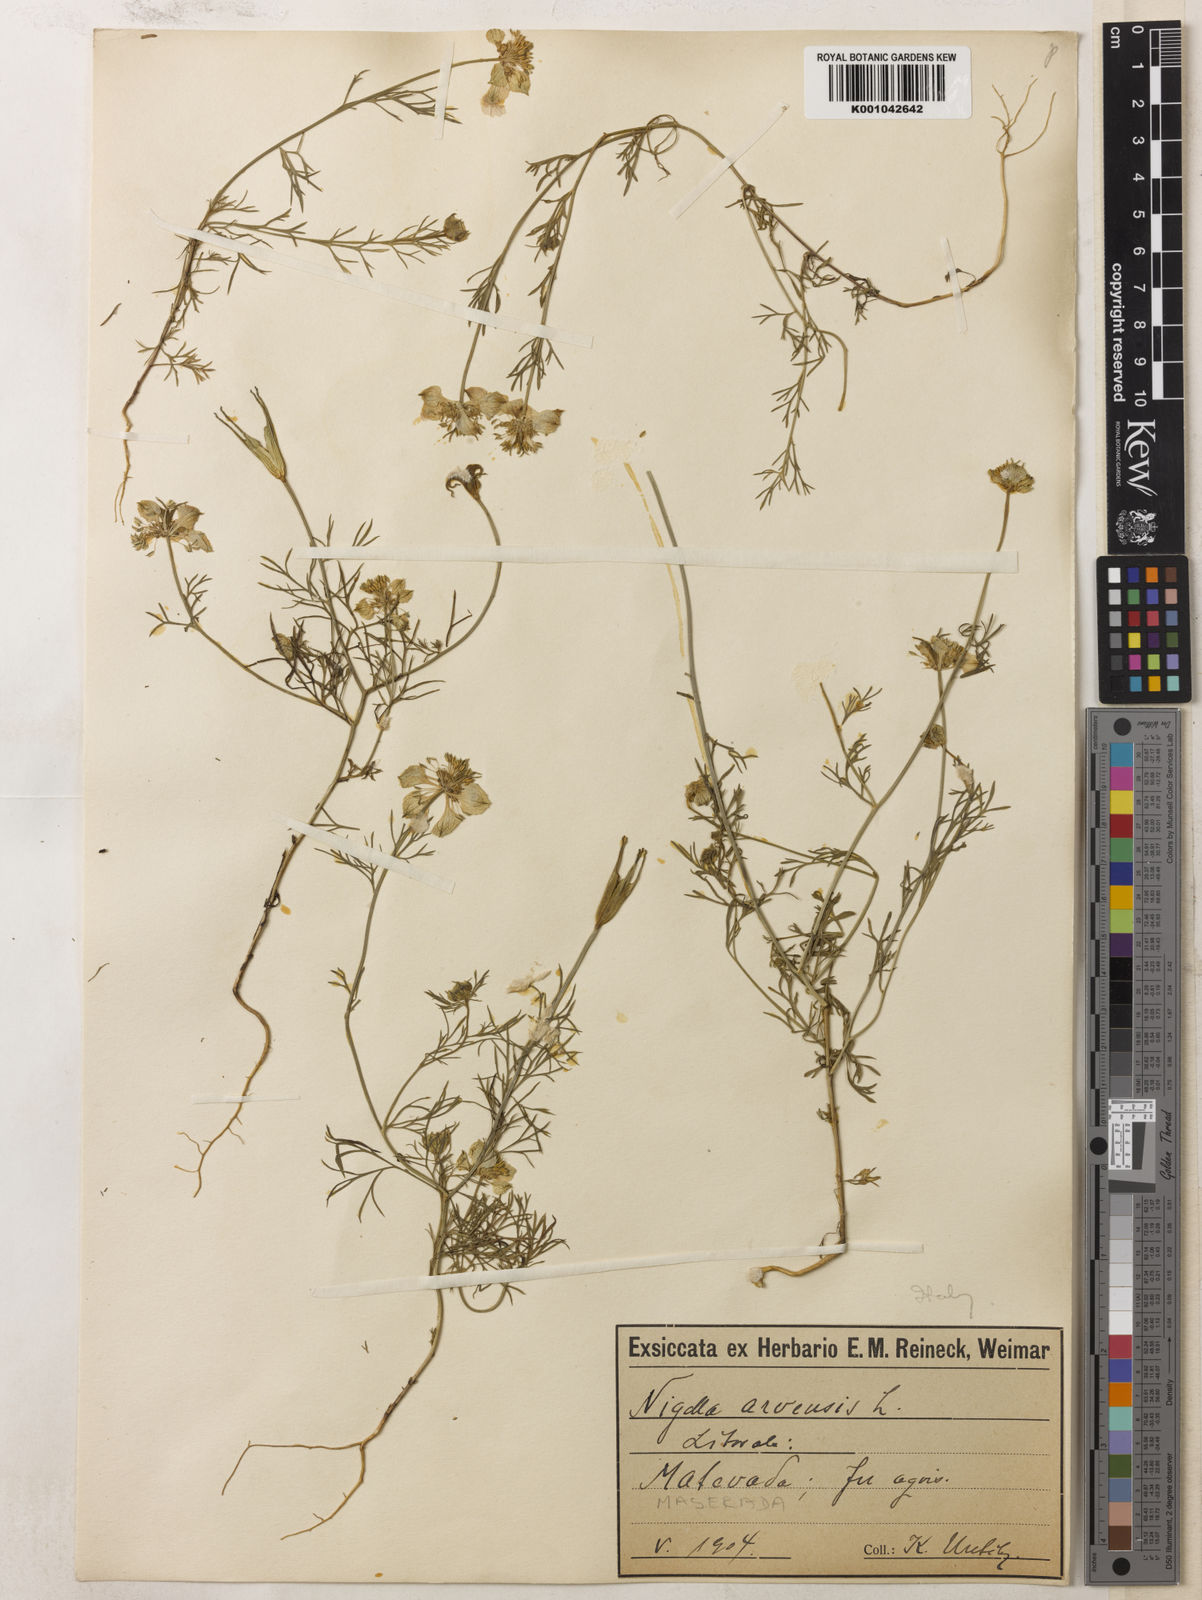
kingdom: Plantae
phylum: Tracheophyta
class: Magnoliopsida
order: Ranunculales
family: Ranunculaceae
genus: Nigella
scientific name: Nigella arvensis
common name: Wild fennel-flower
